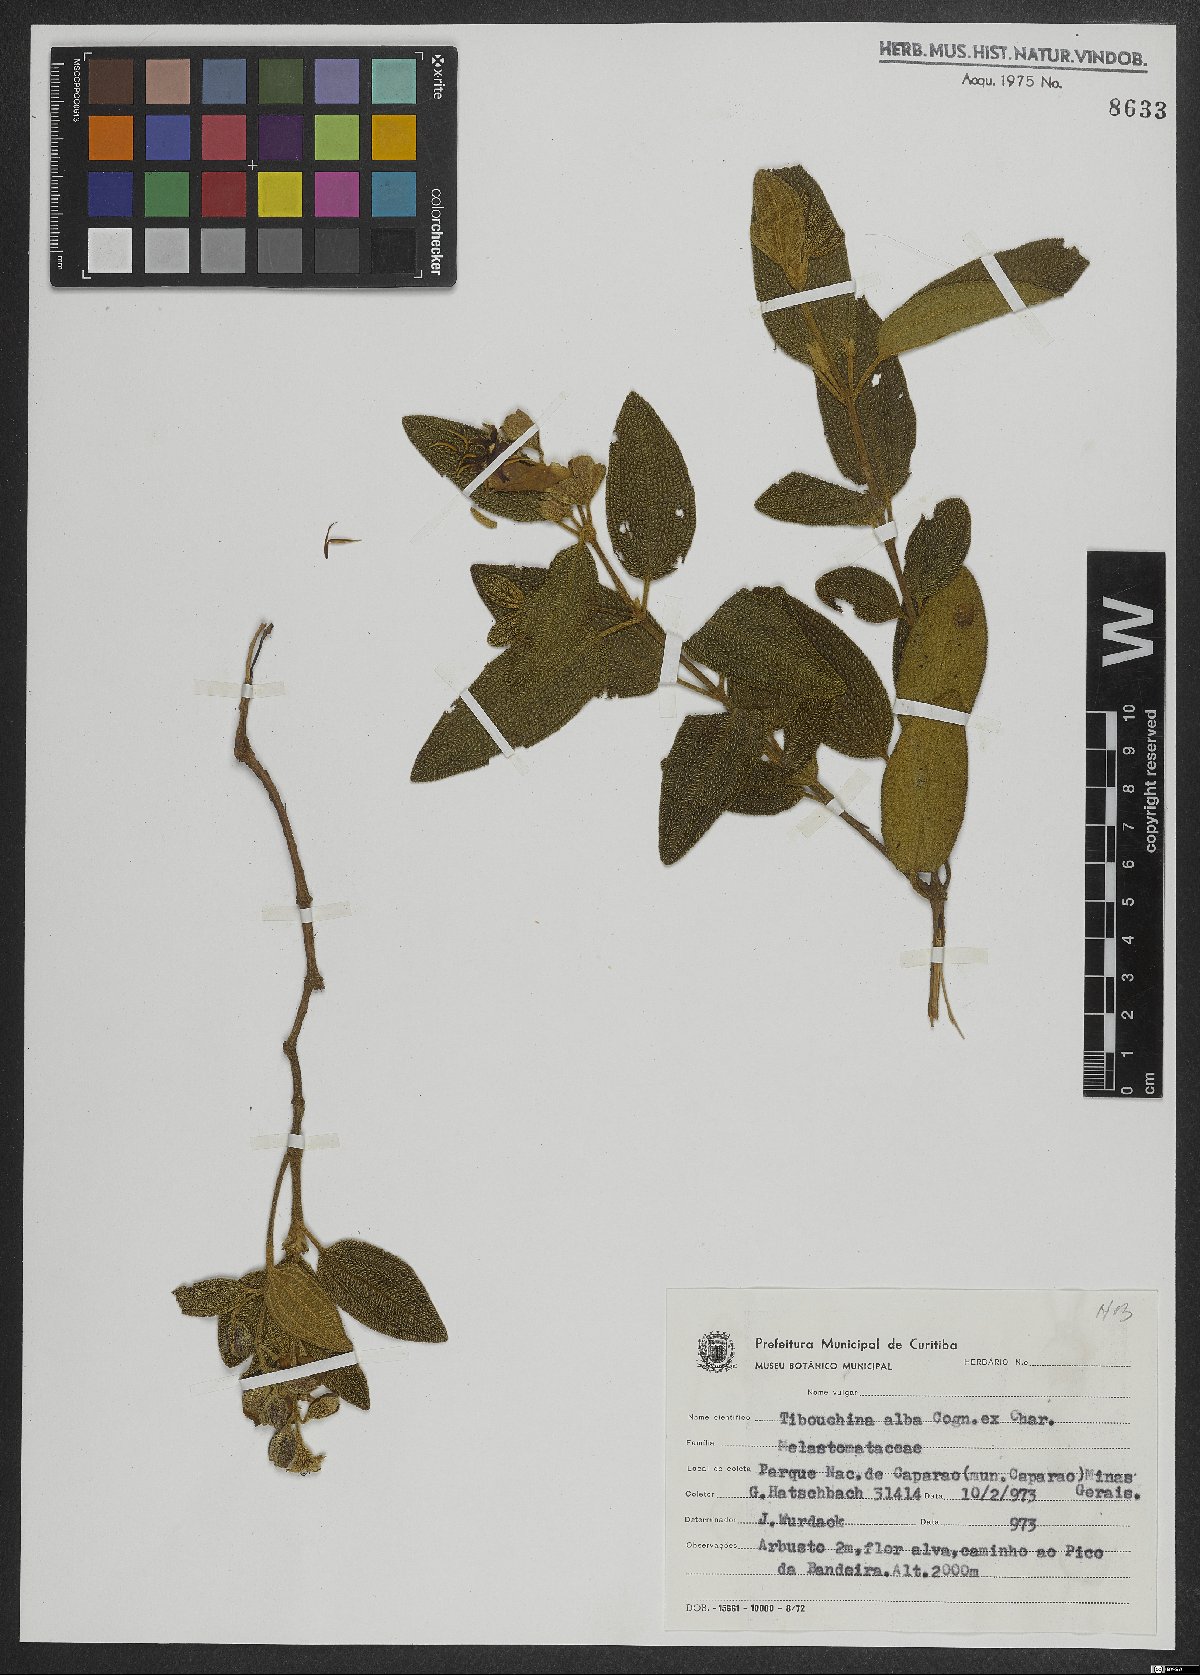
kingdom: Plantae
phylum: Tracheophyta
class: Magnoliopsida
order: Myrtales
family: Melastomataceae
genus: Pleroma
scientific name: Pleroma echinatum
